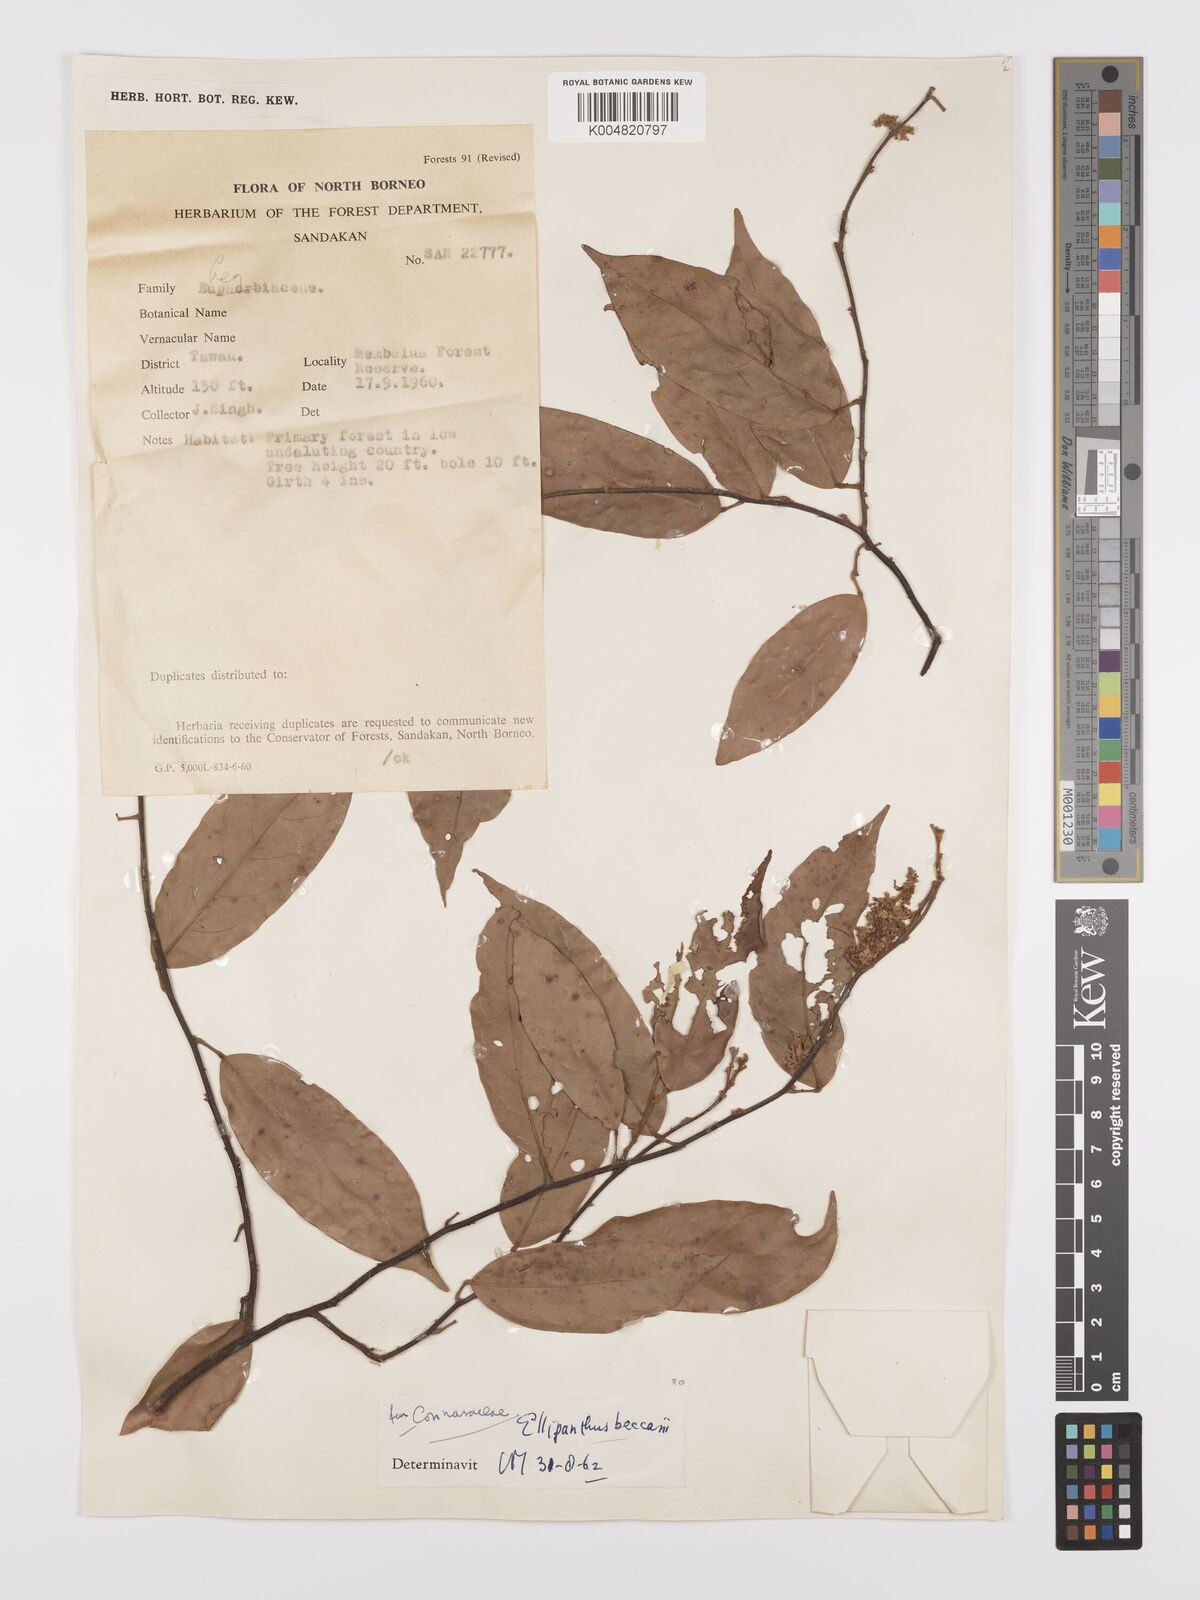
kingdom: Plantae
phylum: Tracheophyta
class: Magnoliopsida
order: Oxalidales
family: Connaraceae
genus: Ellipanthus
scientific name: Ellipanthus beccarii
